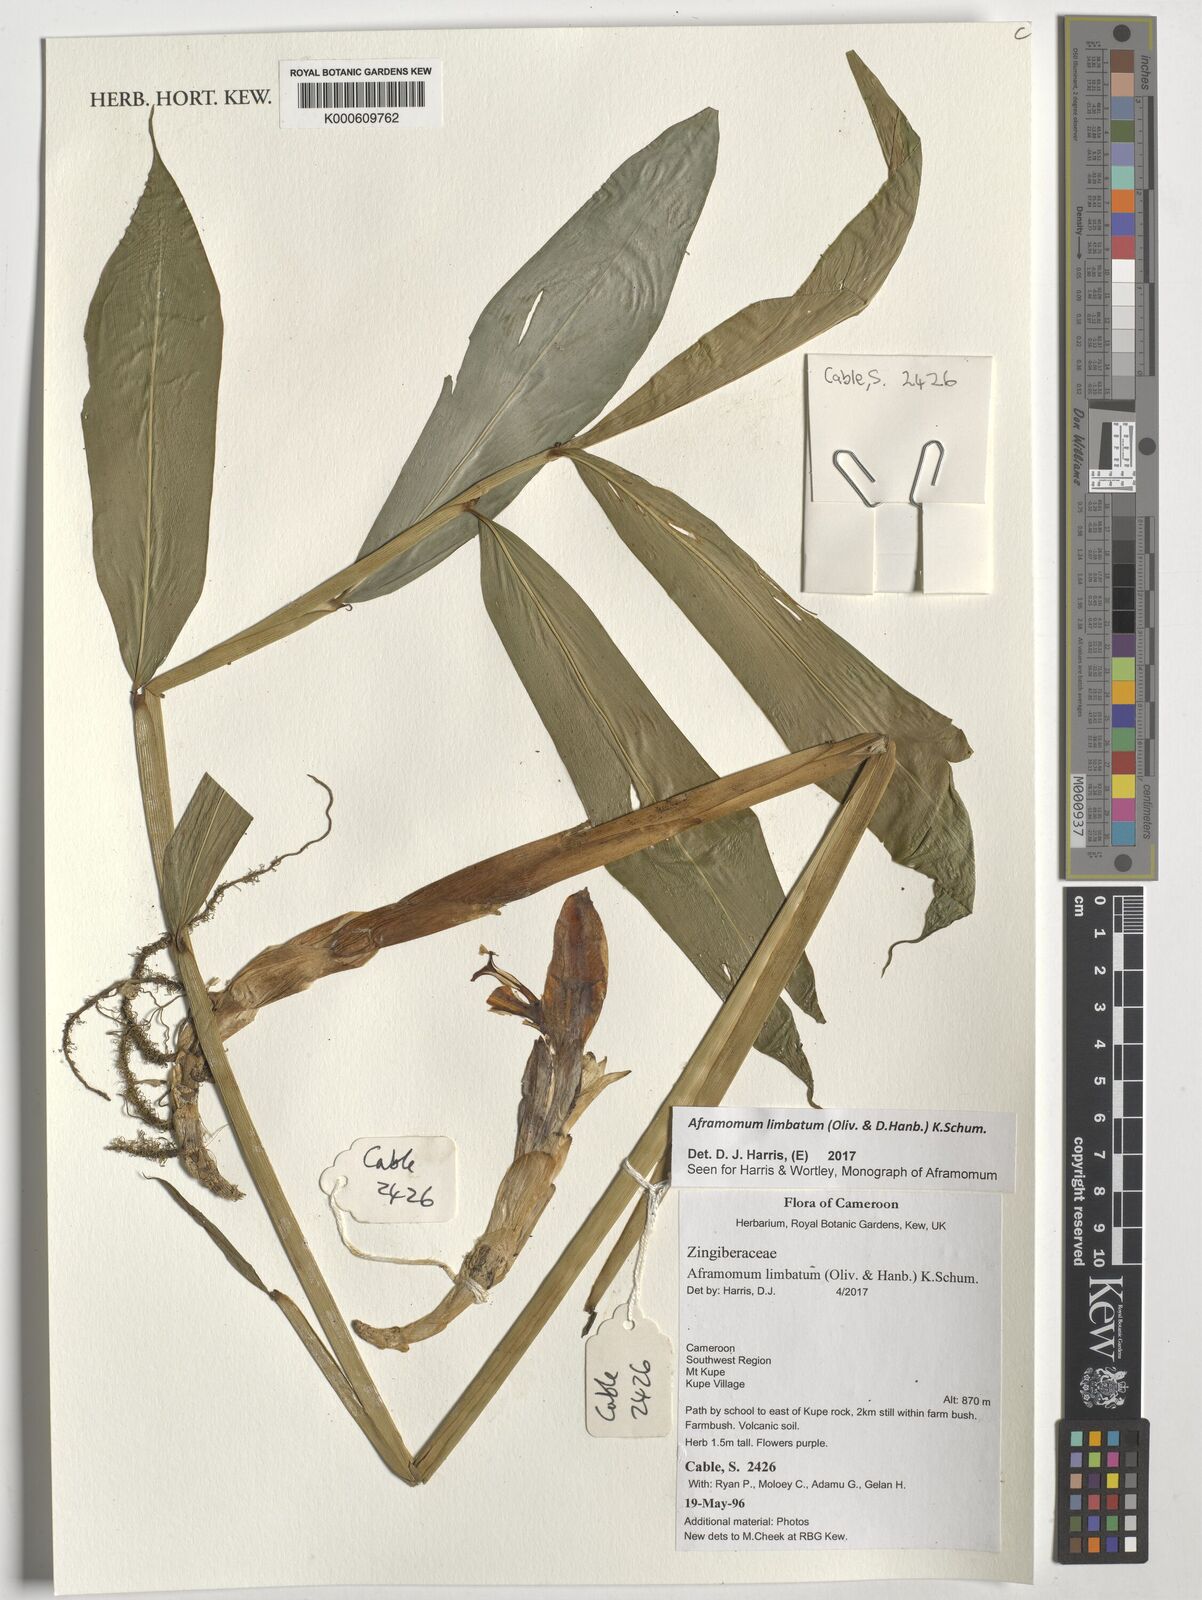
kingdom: Plantae
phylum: Tracheophyta
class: Liliopsida
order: Zingiberales
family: Zingiberaceae
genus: Aframomum
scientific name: Aframomum limbatum
